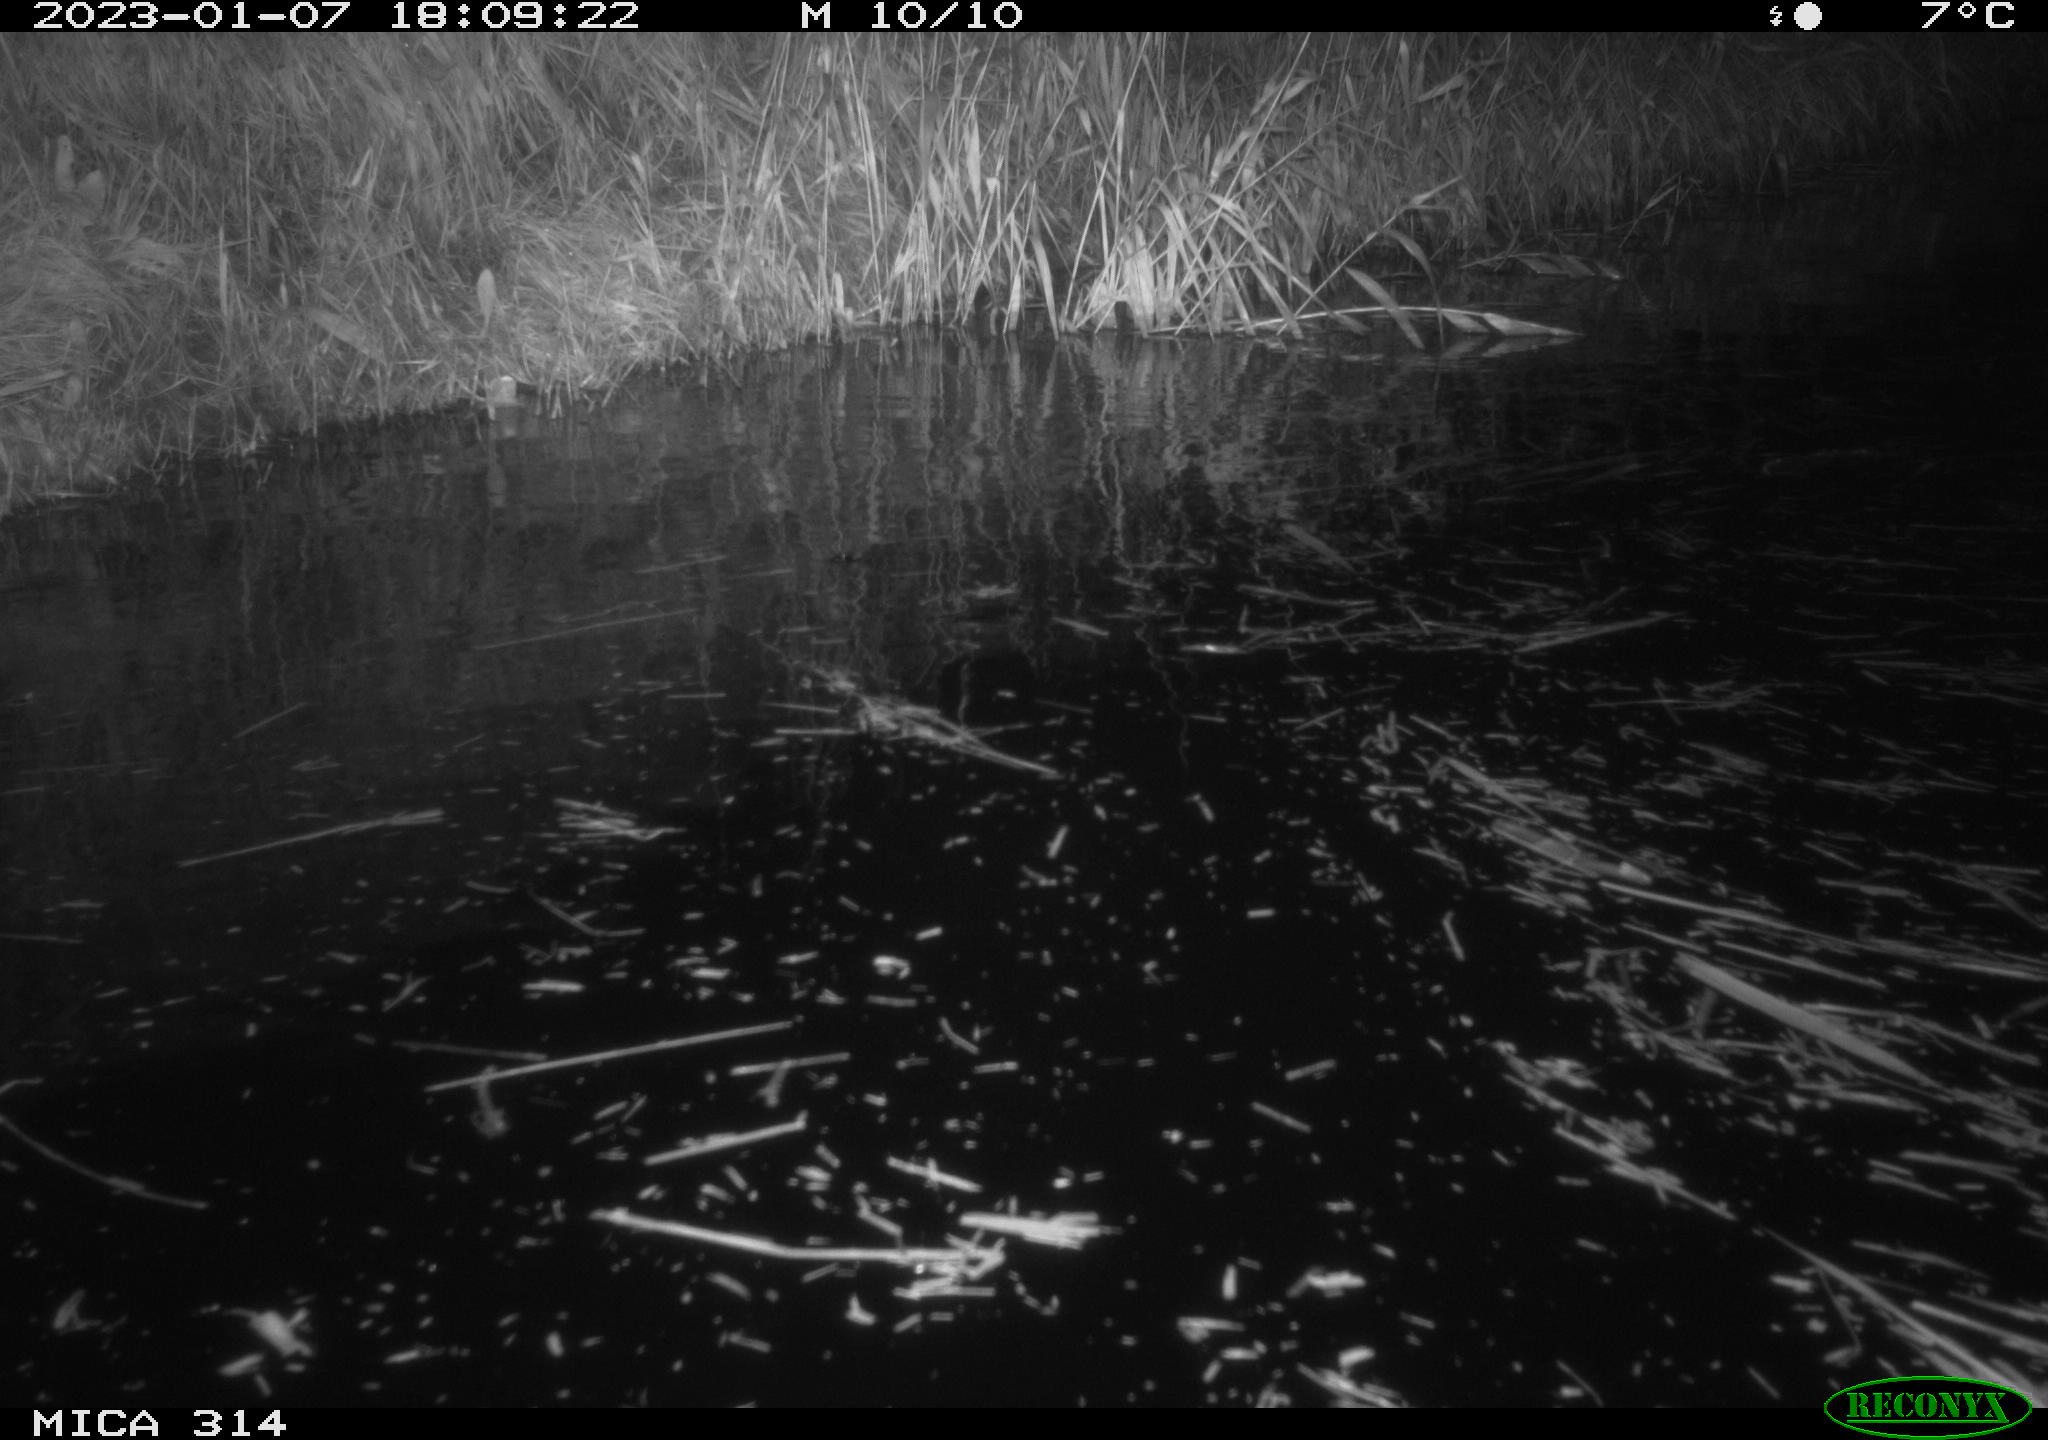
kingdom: Animalia
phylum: Chordata
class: Mammalia
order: Rodentia
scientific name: Rodentia
